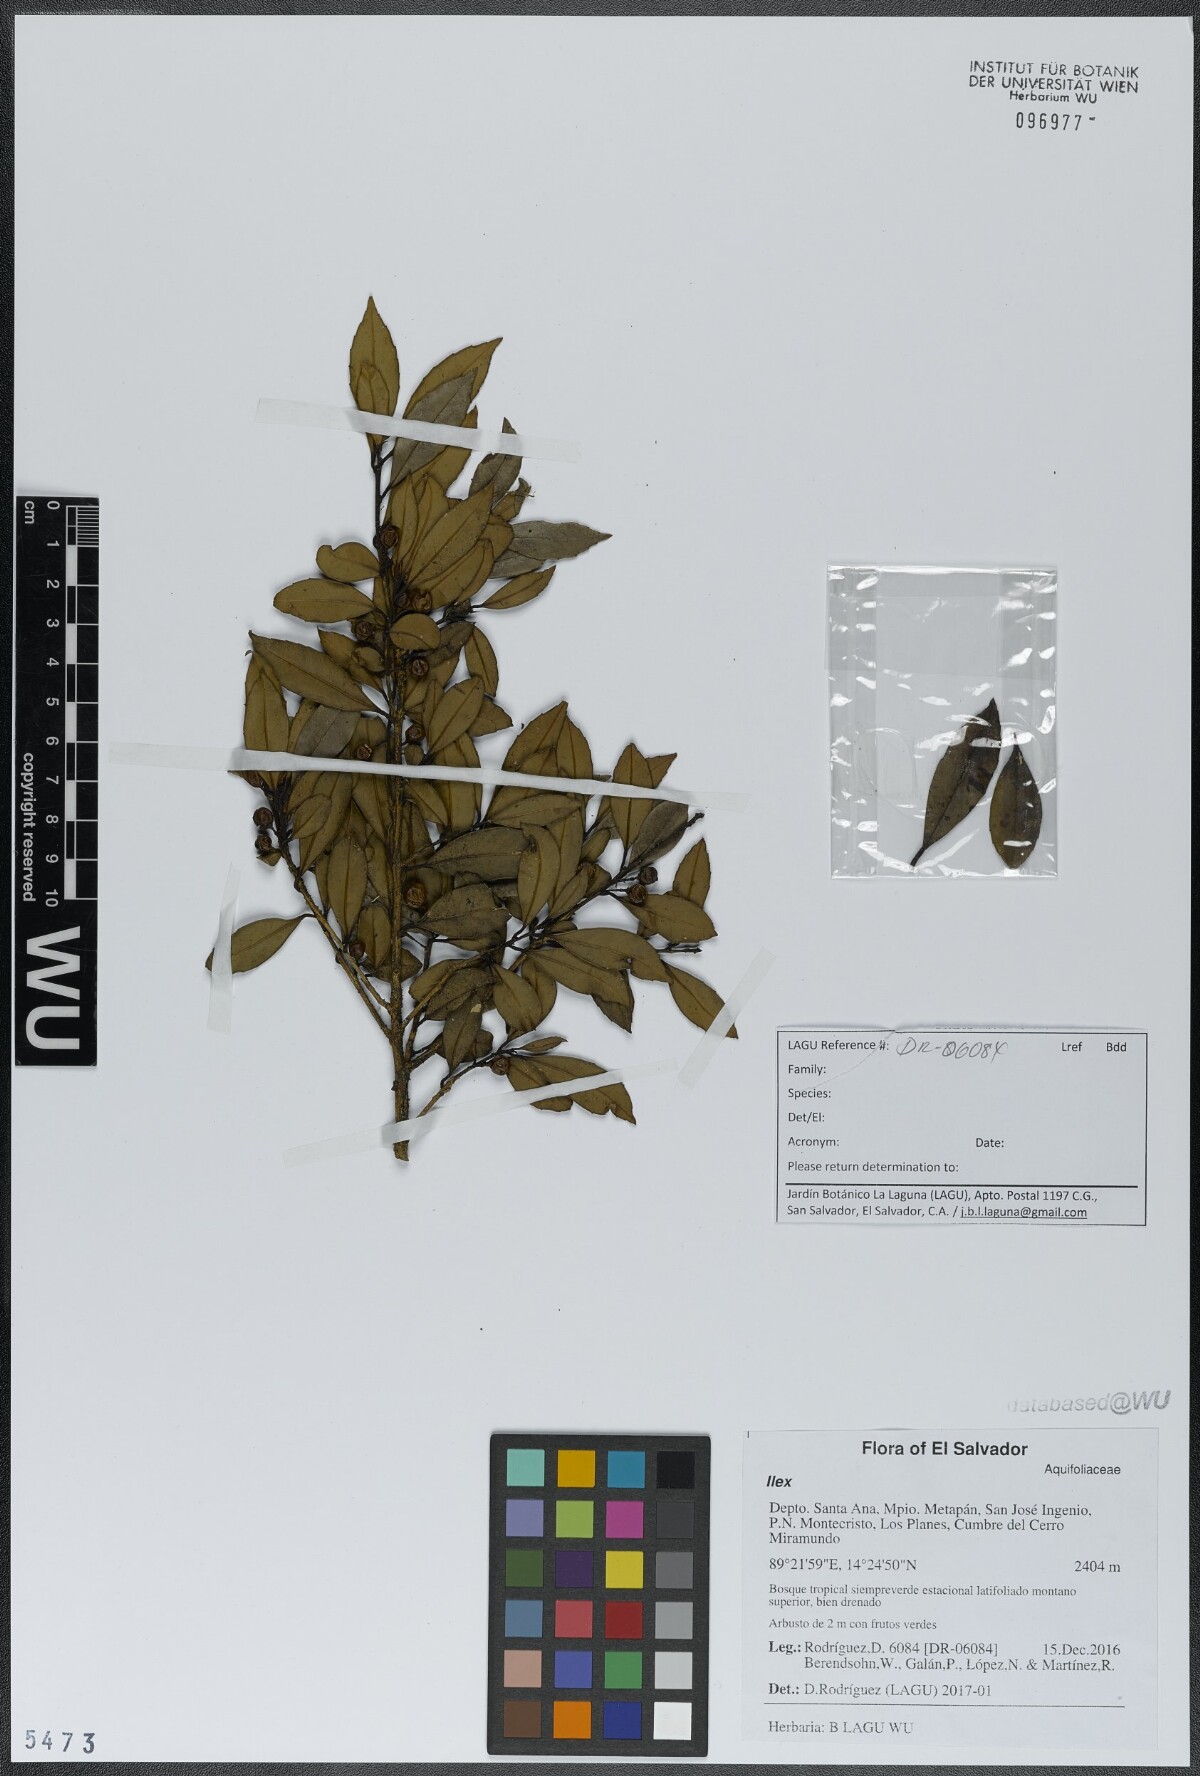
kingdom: Plantae
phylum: Tracheophyta
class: Magnoliopsida
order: Aquifoliales
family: Aquifoliaceae
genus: Ilex
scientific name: Ilex
